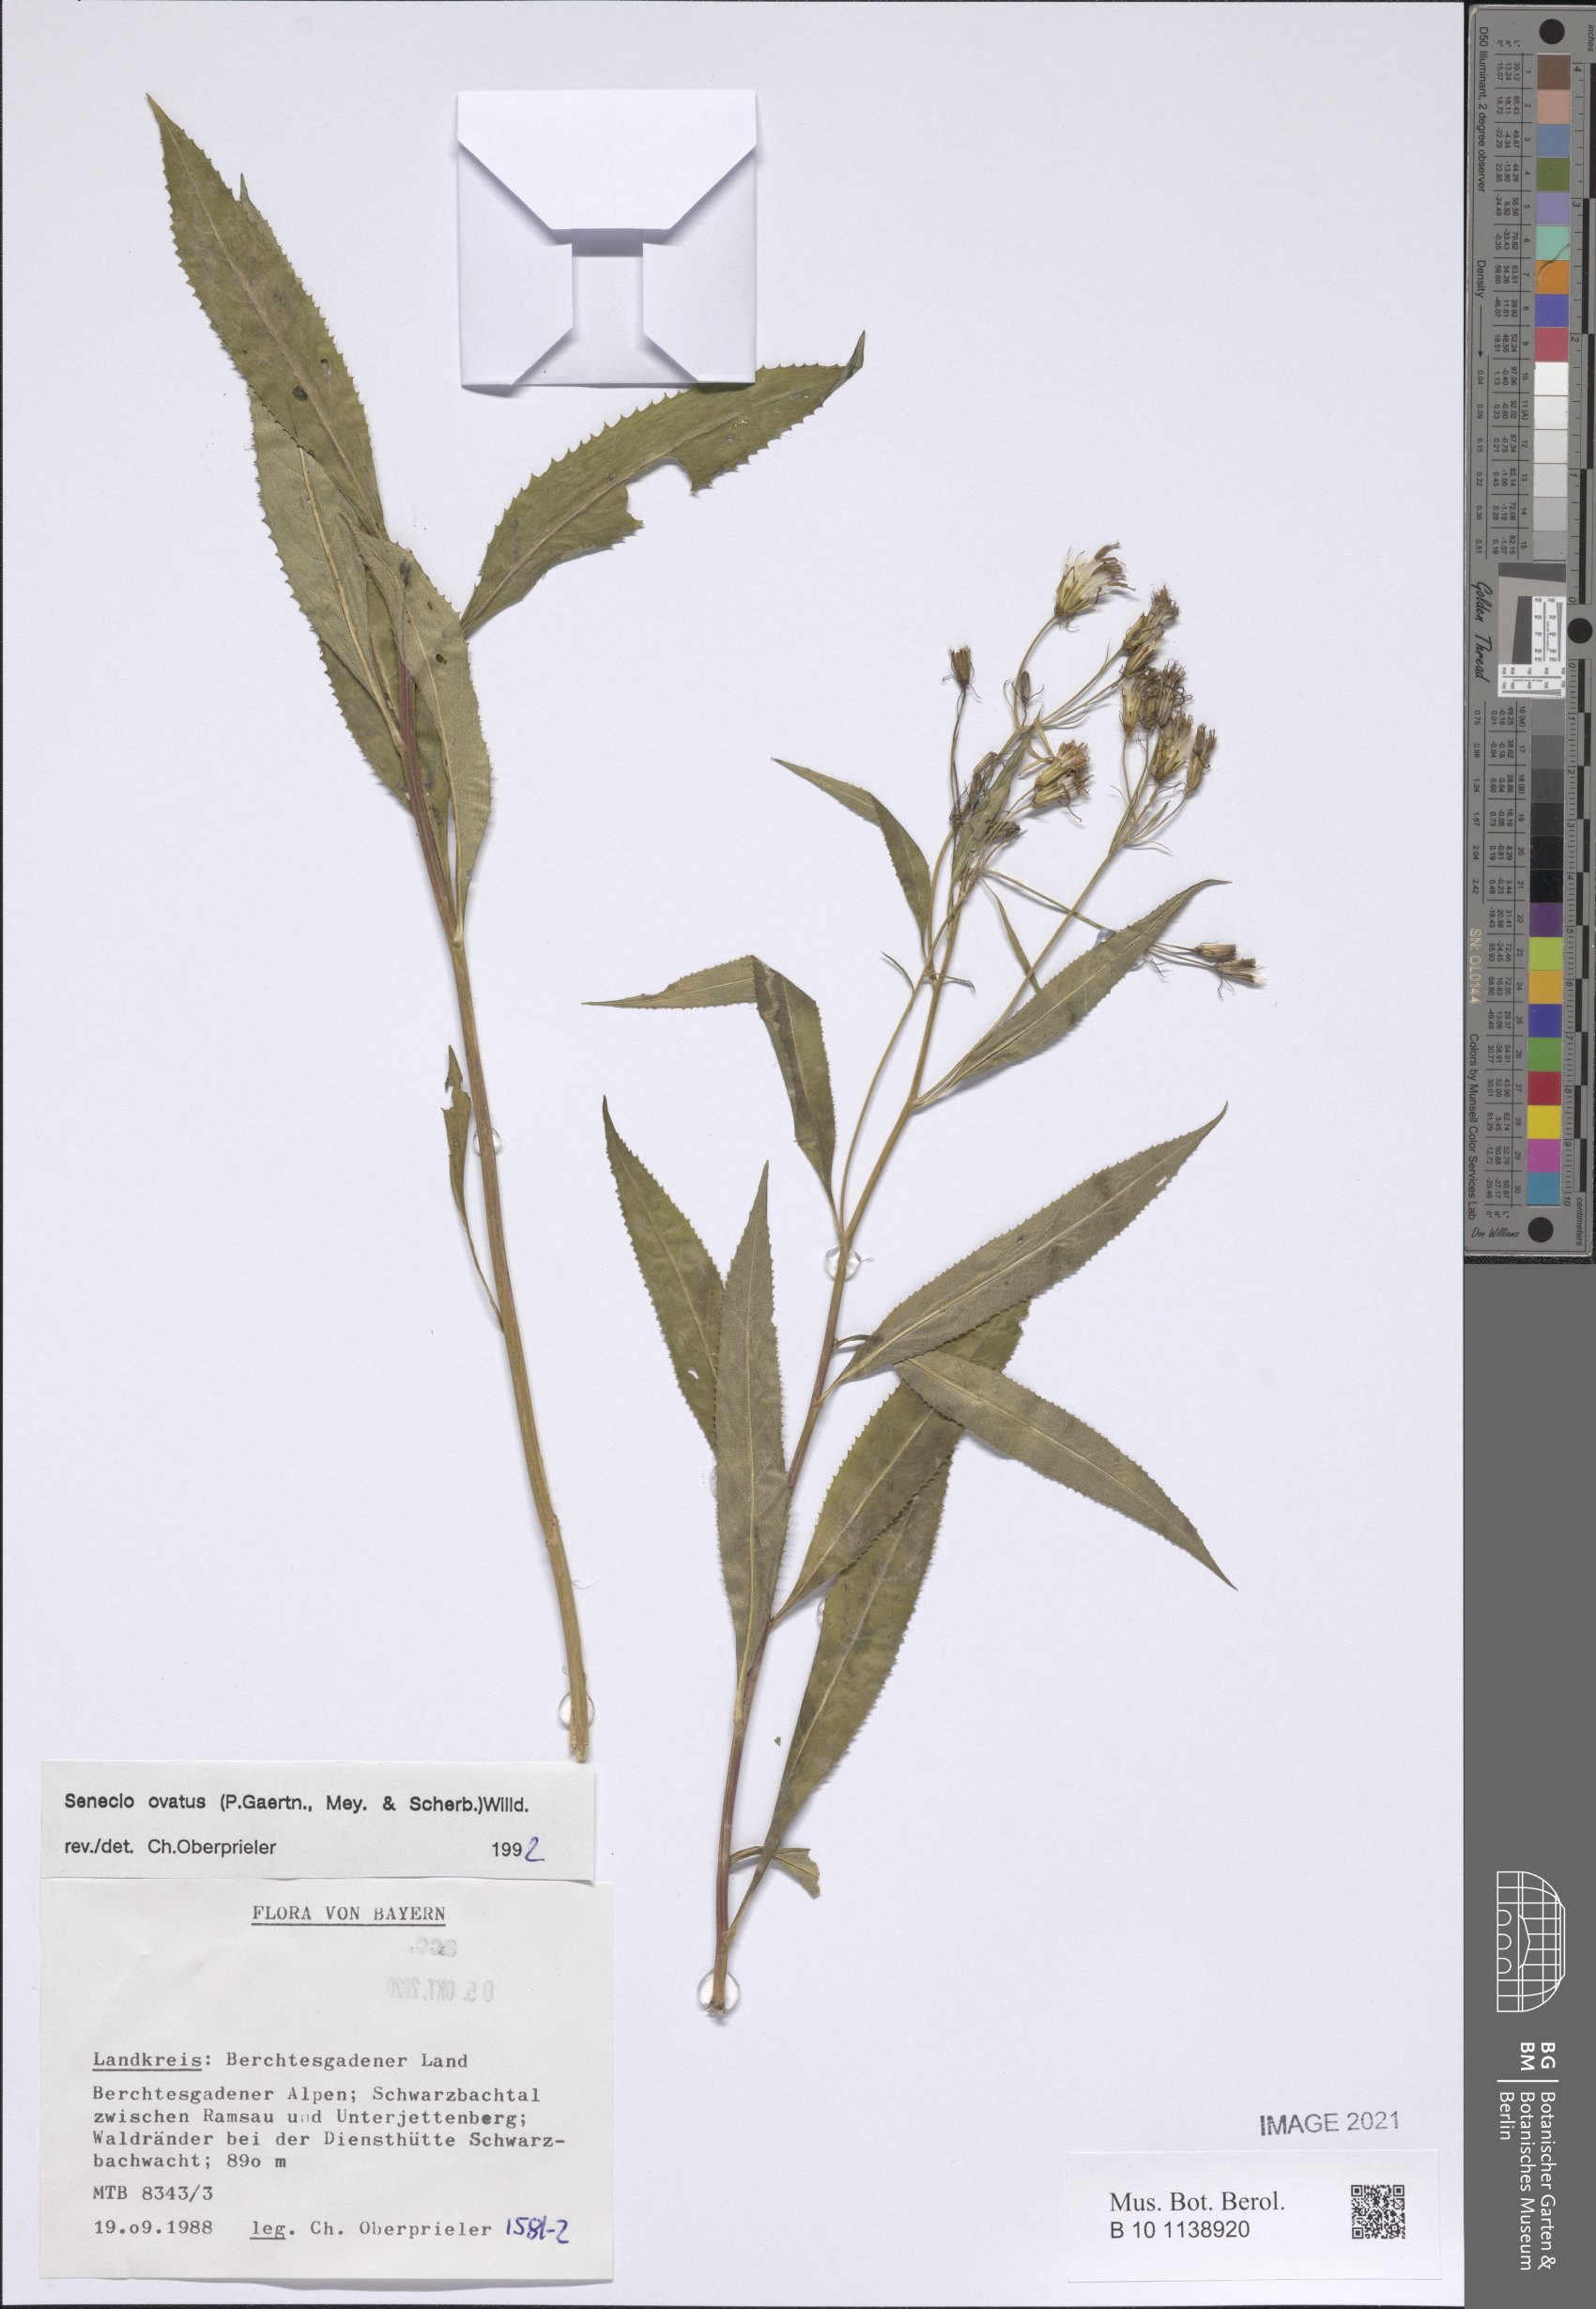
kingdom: Plantae
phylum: Tracheophyta
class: Magnoliopsida
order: Asterales
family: Asteraceae
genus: Senecio
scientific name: Senecio ovatus
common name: Wood ragwort
